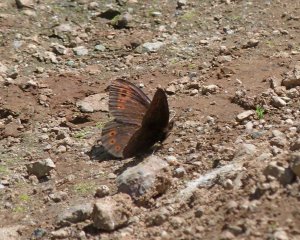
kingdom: Animalia
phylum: Arthropoda
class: Insecta
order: Lepidoptera
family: Nymphalidae
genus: Erebia
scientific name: Erebia epipsodea
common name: Common Alpine
